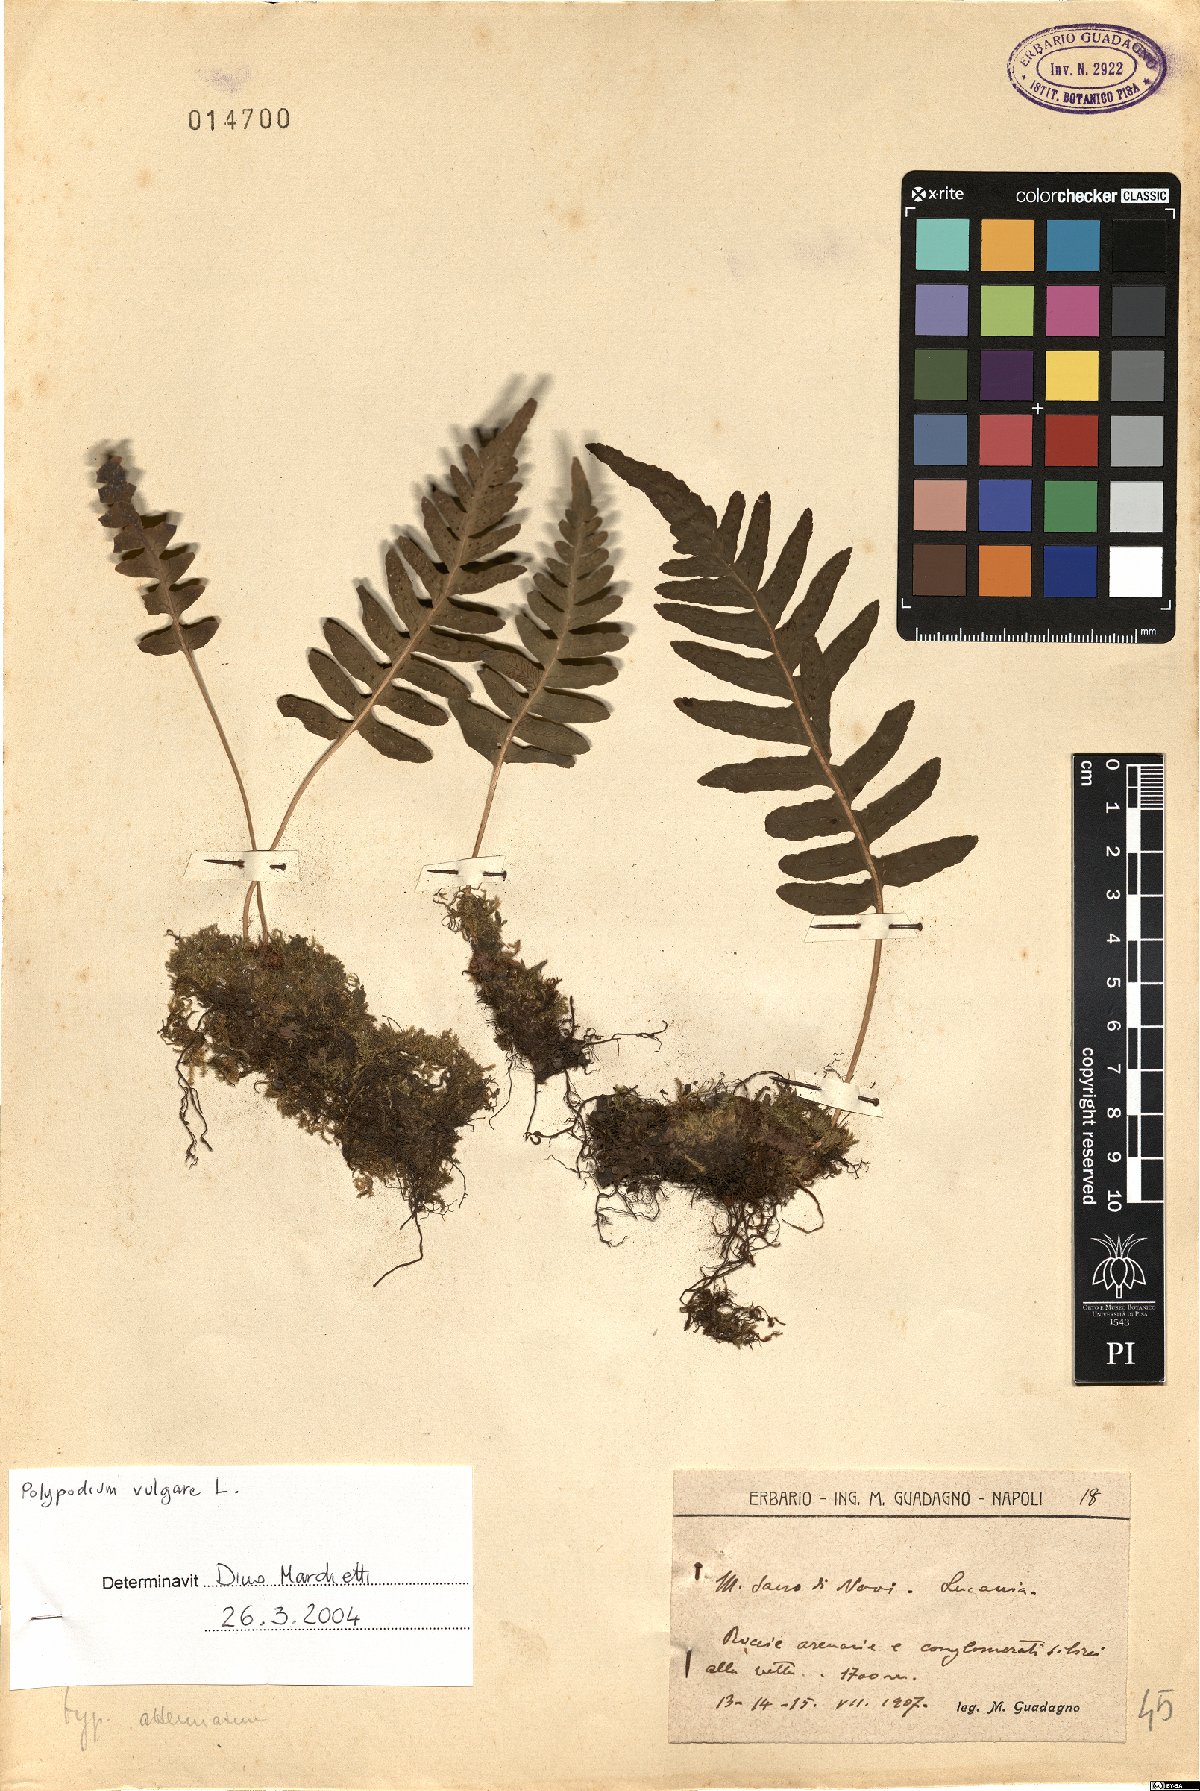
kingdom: Plantae
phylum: Tracheophyta
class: Polypodiopsida
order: Polypodiales
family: Polypodiaceae
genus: Polypodium
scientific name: Polypodium vulgare
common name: Common polypody
